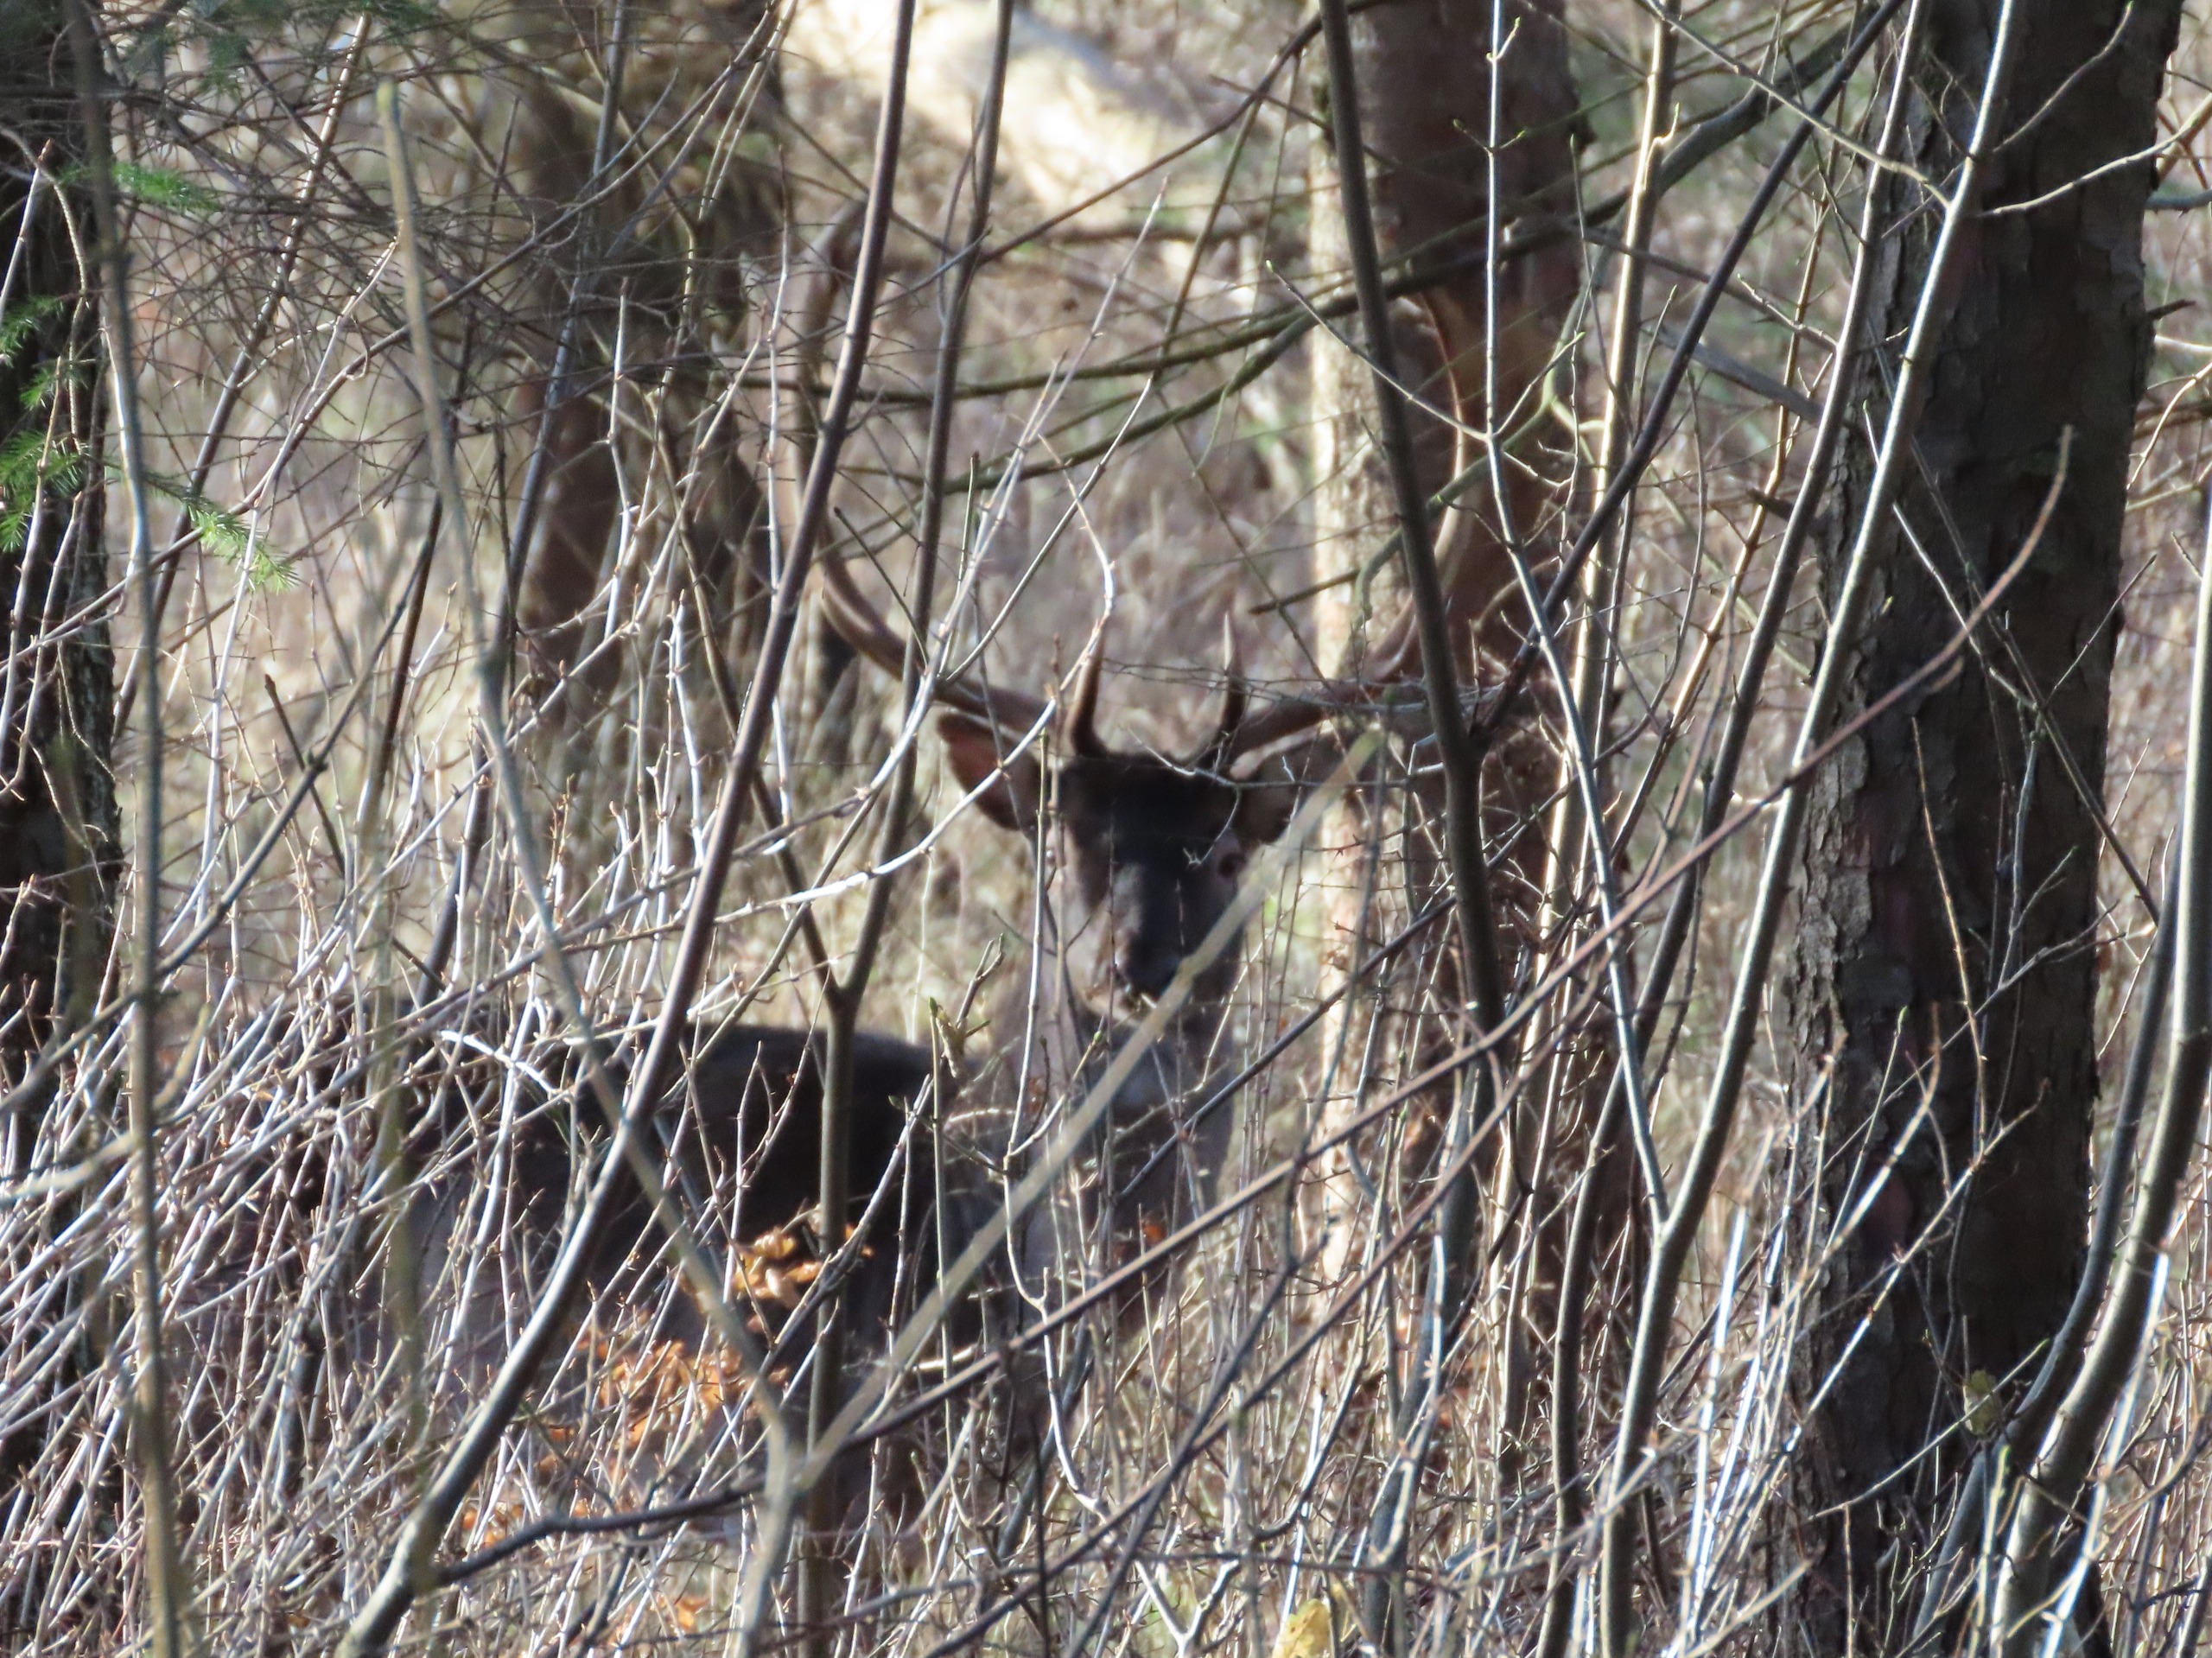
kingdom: Animalia
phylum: Chordata
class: Mammalia
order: Artiodactyla
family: Cervidae
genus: Dama
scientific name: Dama dama
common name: Dådyr
